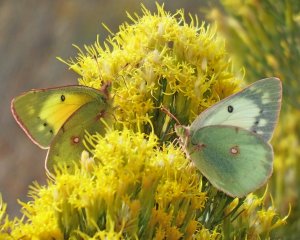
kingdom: Animalia
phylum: Arthropoda
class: Insecta
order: Lepidoptera
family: Pieridae
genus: Colias
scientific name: Colias eurytheme
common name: Orange Sulphur
